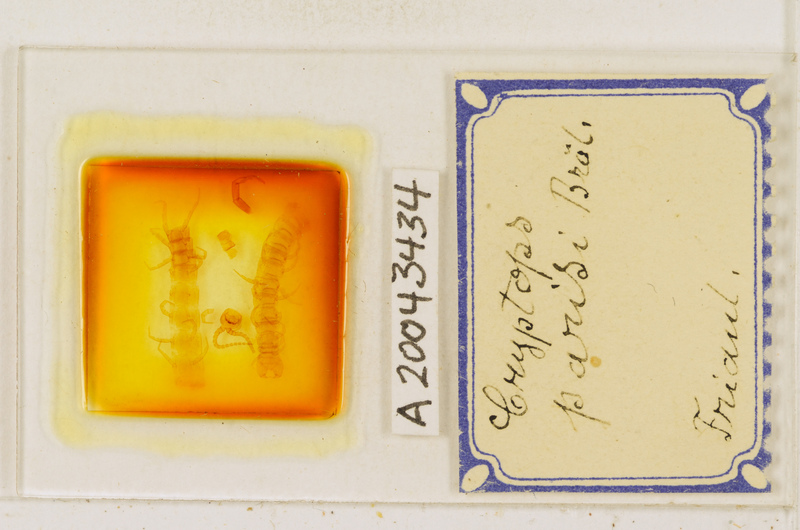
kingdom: Animalia
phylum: Arthropoda
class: Chilopoda
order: Scolopendromorpha
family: Cryptopidae
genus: Cryptops
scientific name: Cryptops parisi
